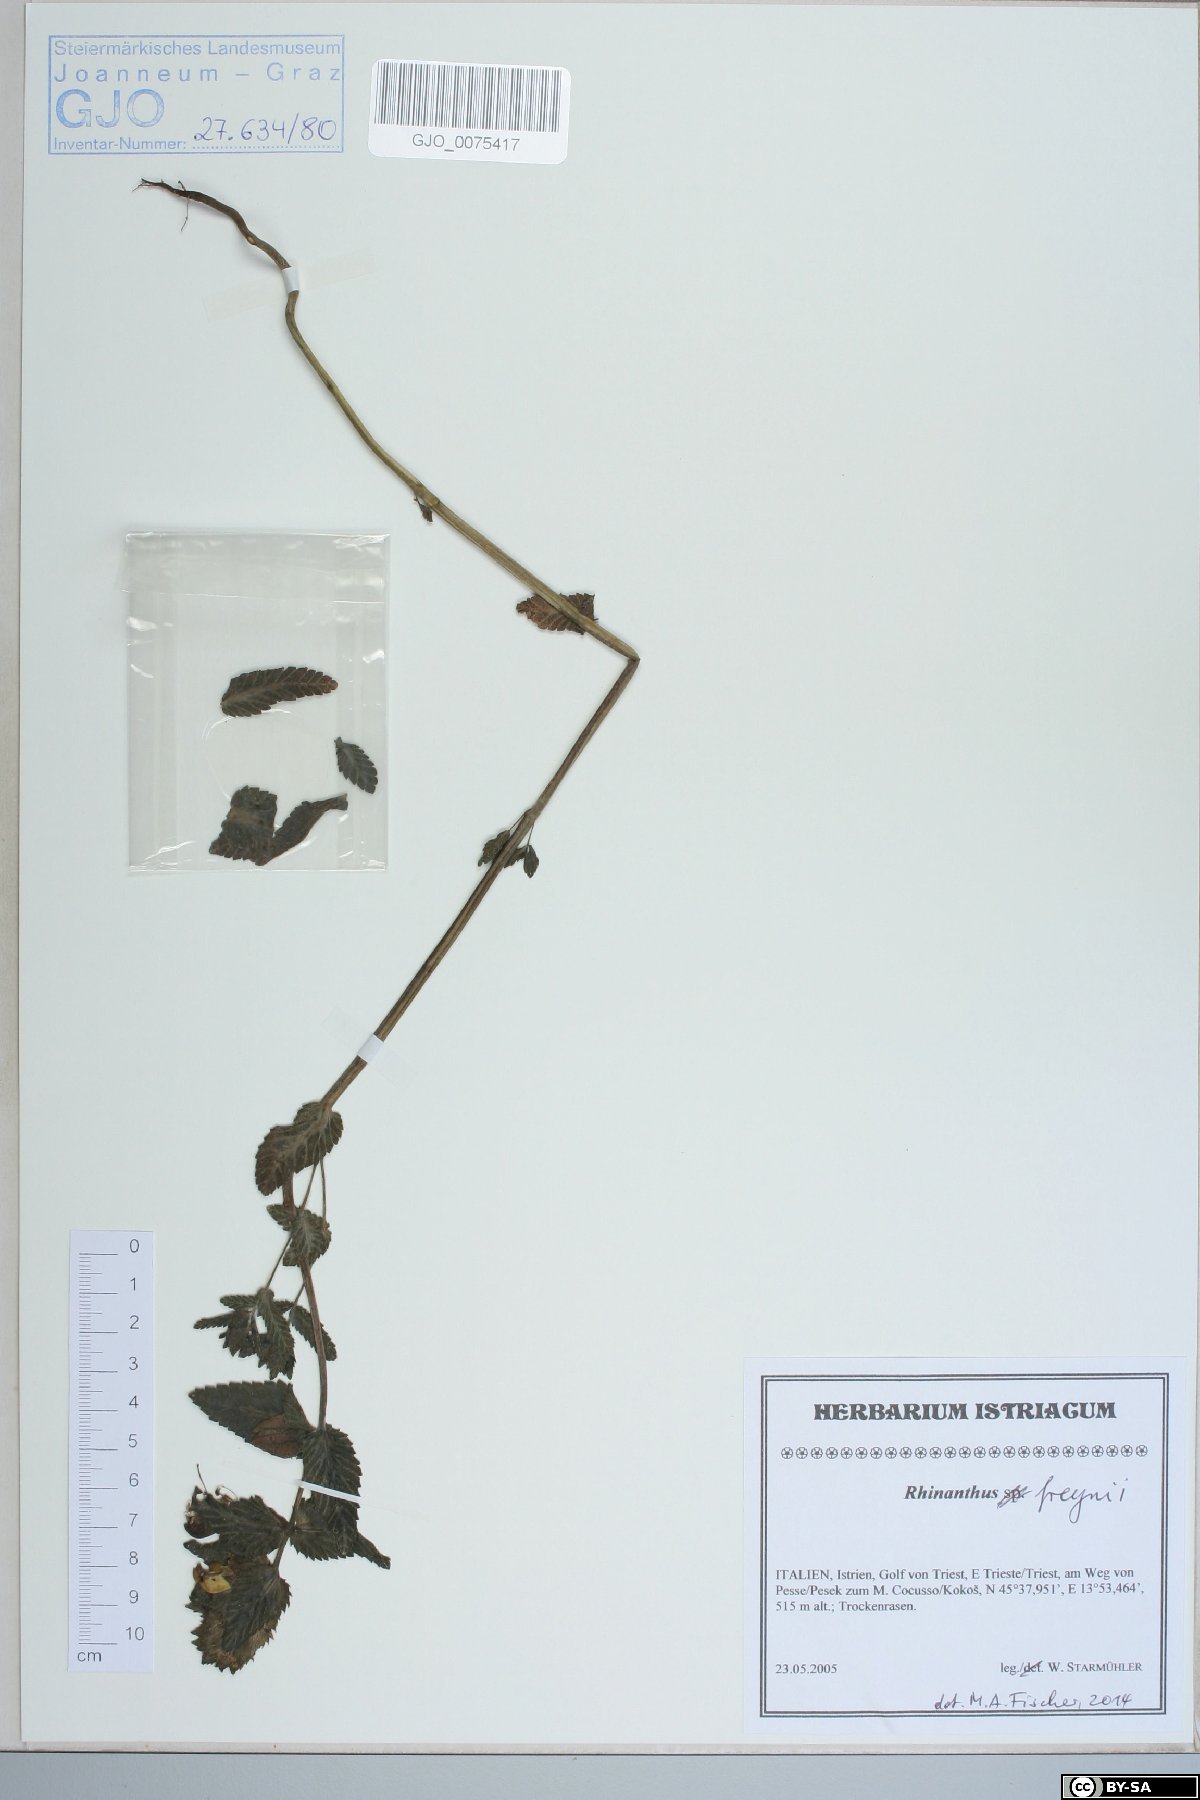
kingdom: Plantae
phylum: Tracheophyta
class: Magnoliopsida
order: Lamiales
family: Orobanchaceae
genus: Rhinanthus
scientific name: Rhinanthus freynii
